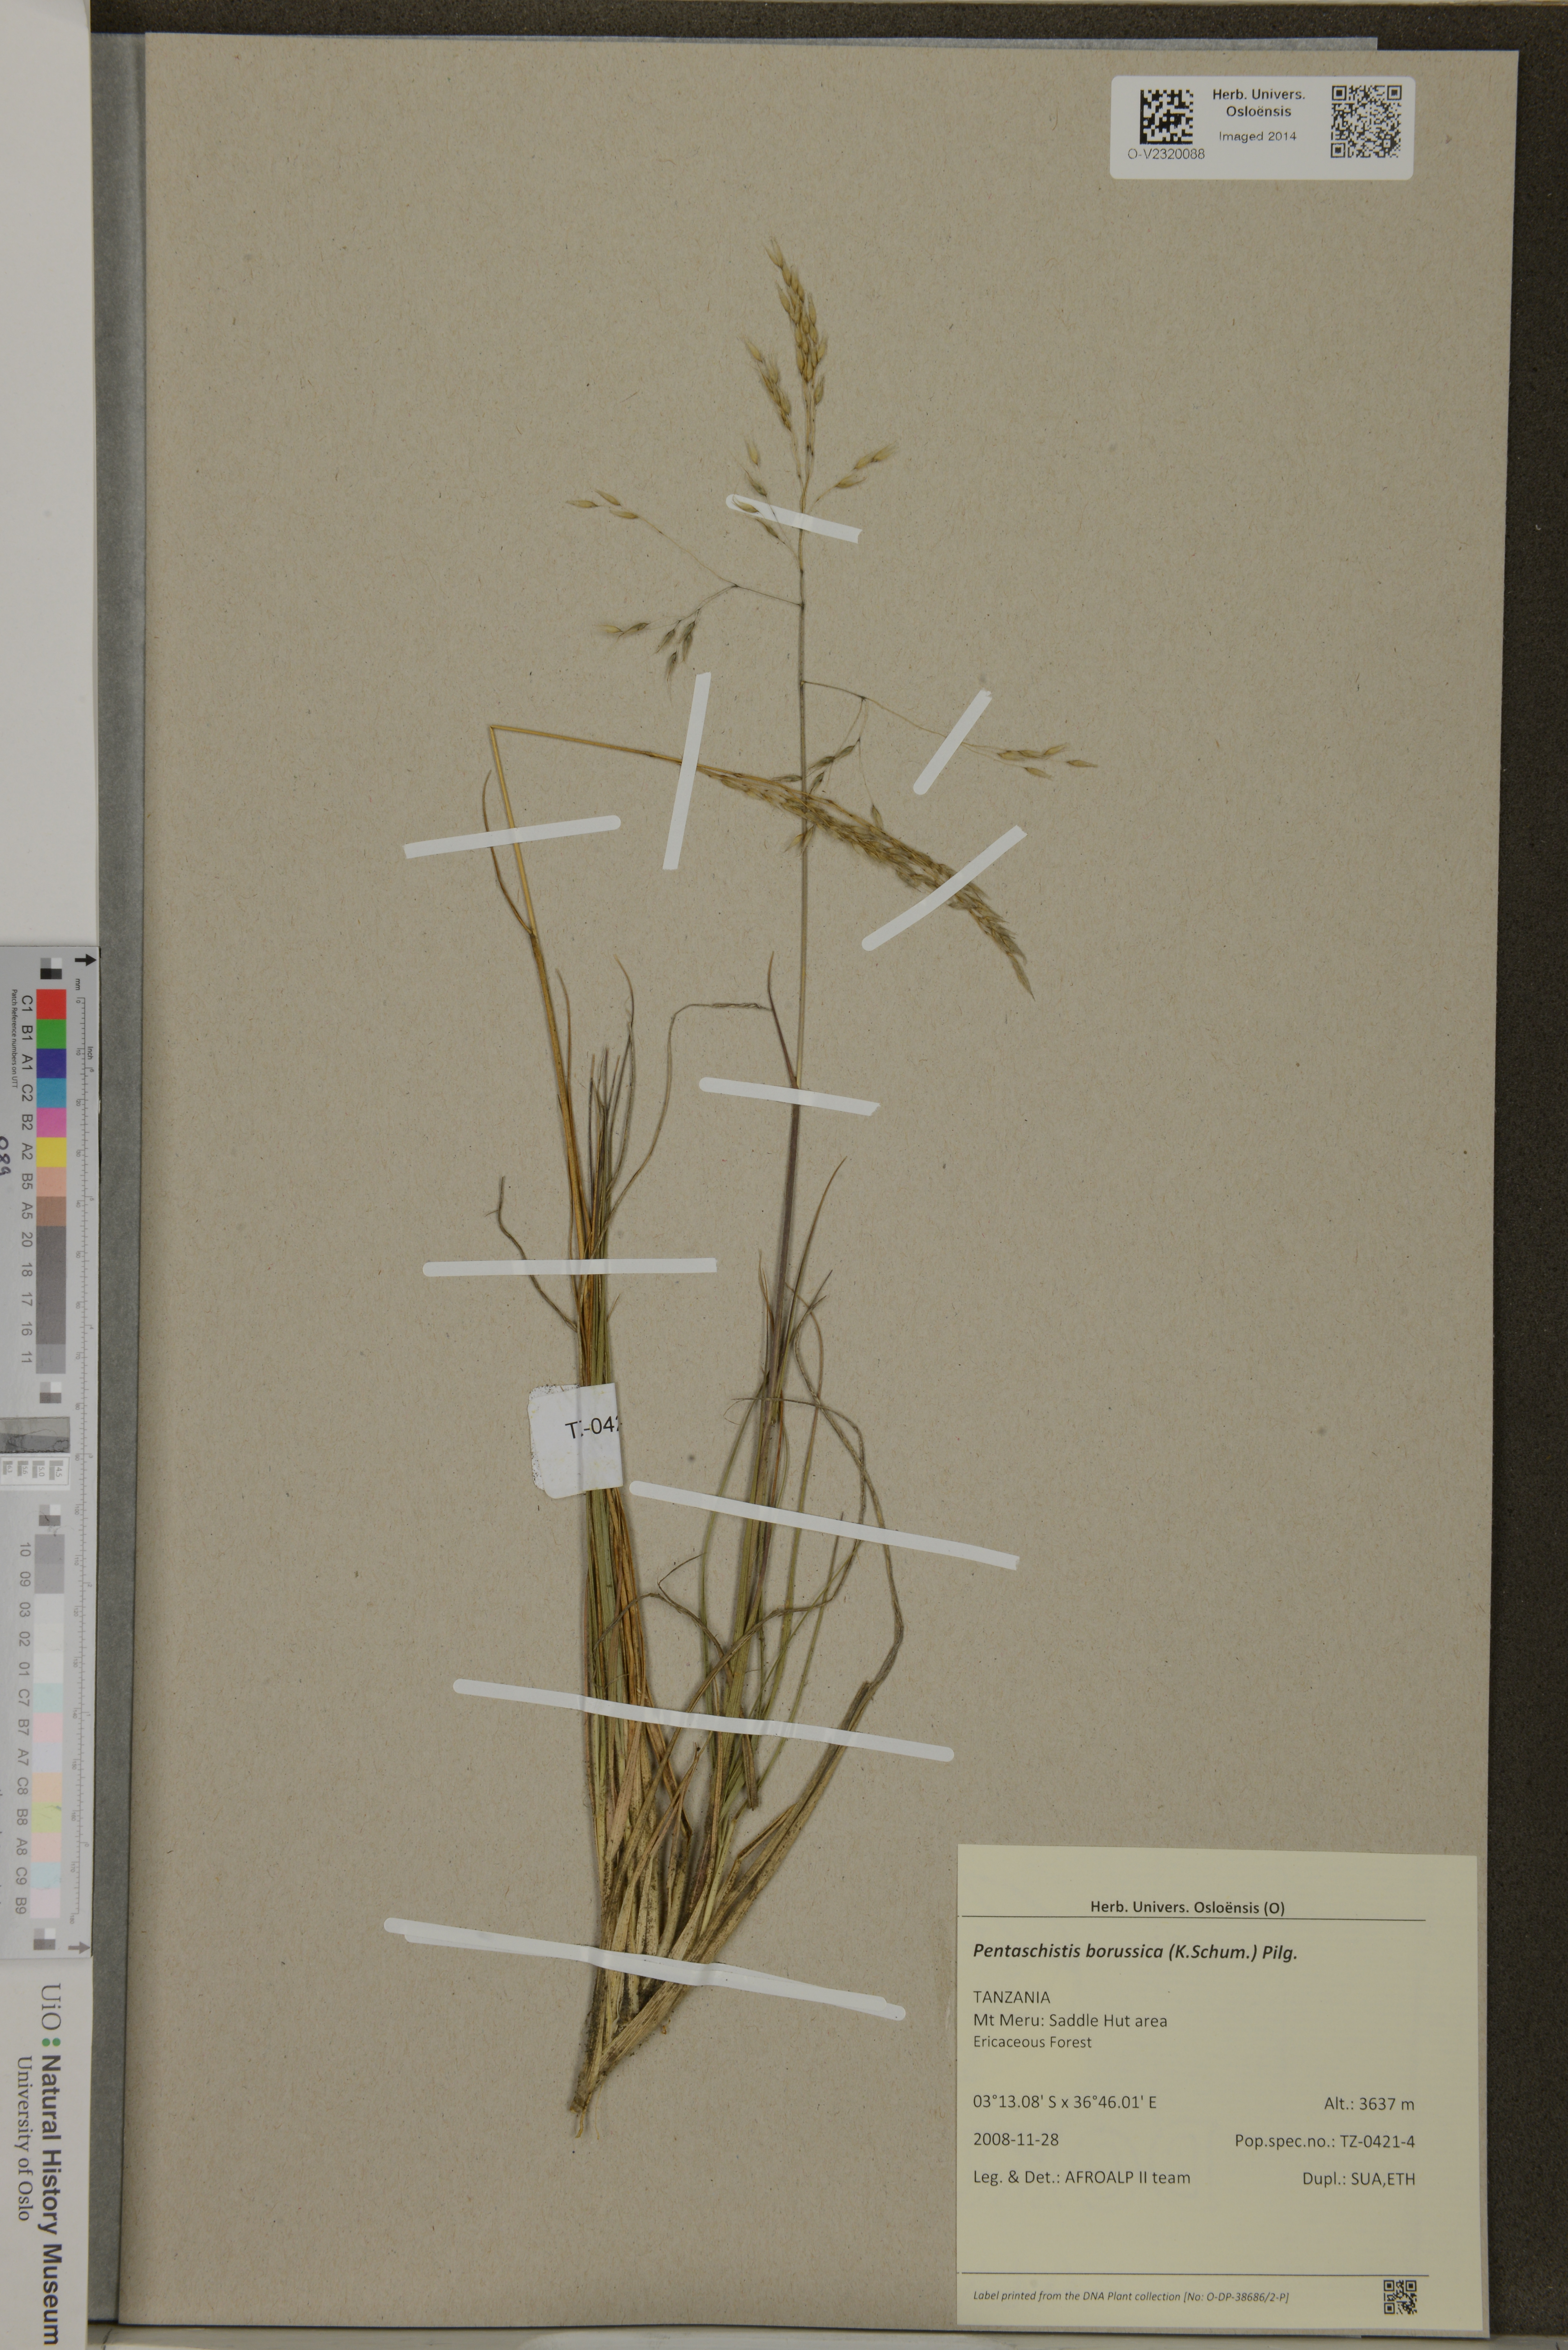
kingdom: Plantae
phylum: Tracheophyta
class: Liliopsida
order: Poales
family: Poaceae
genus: Pentameris
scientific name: Pentameris borussica
